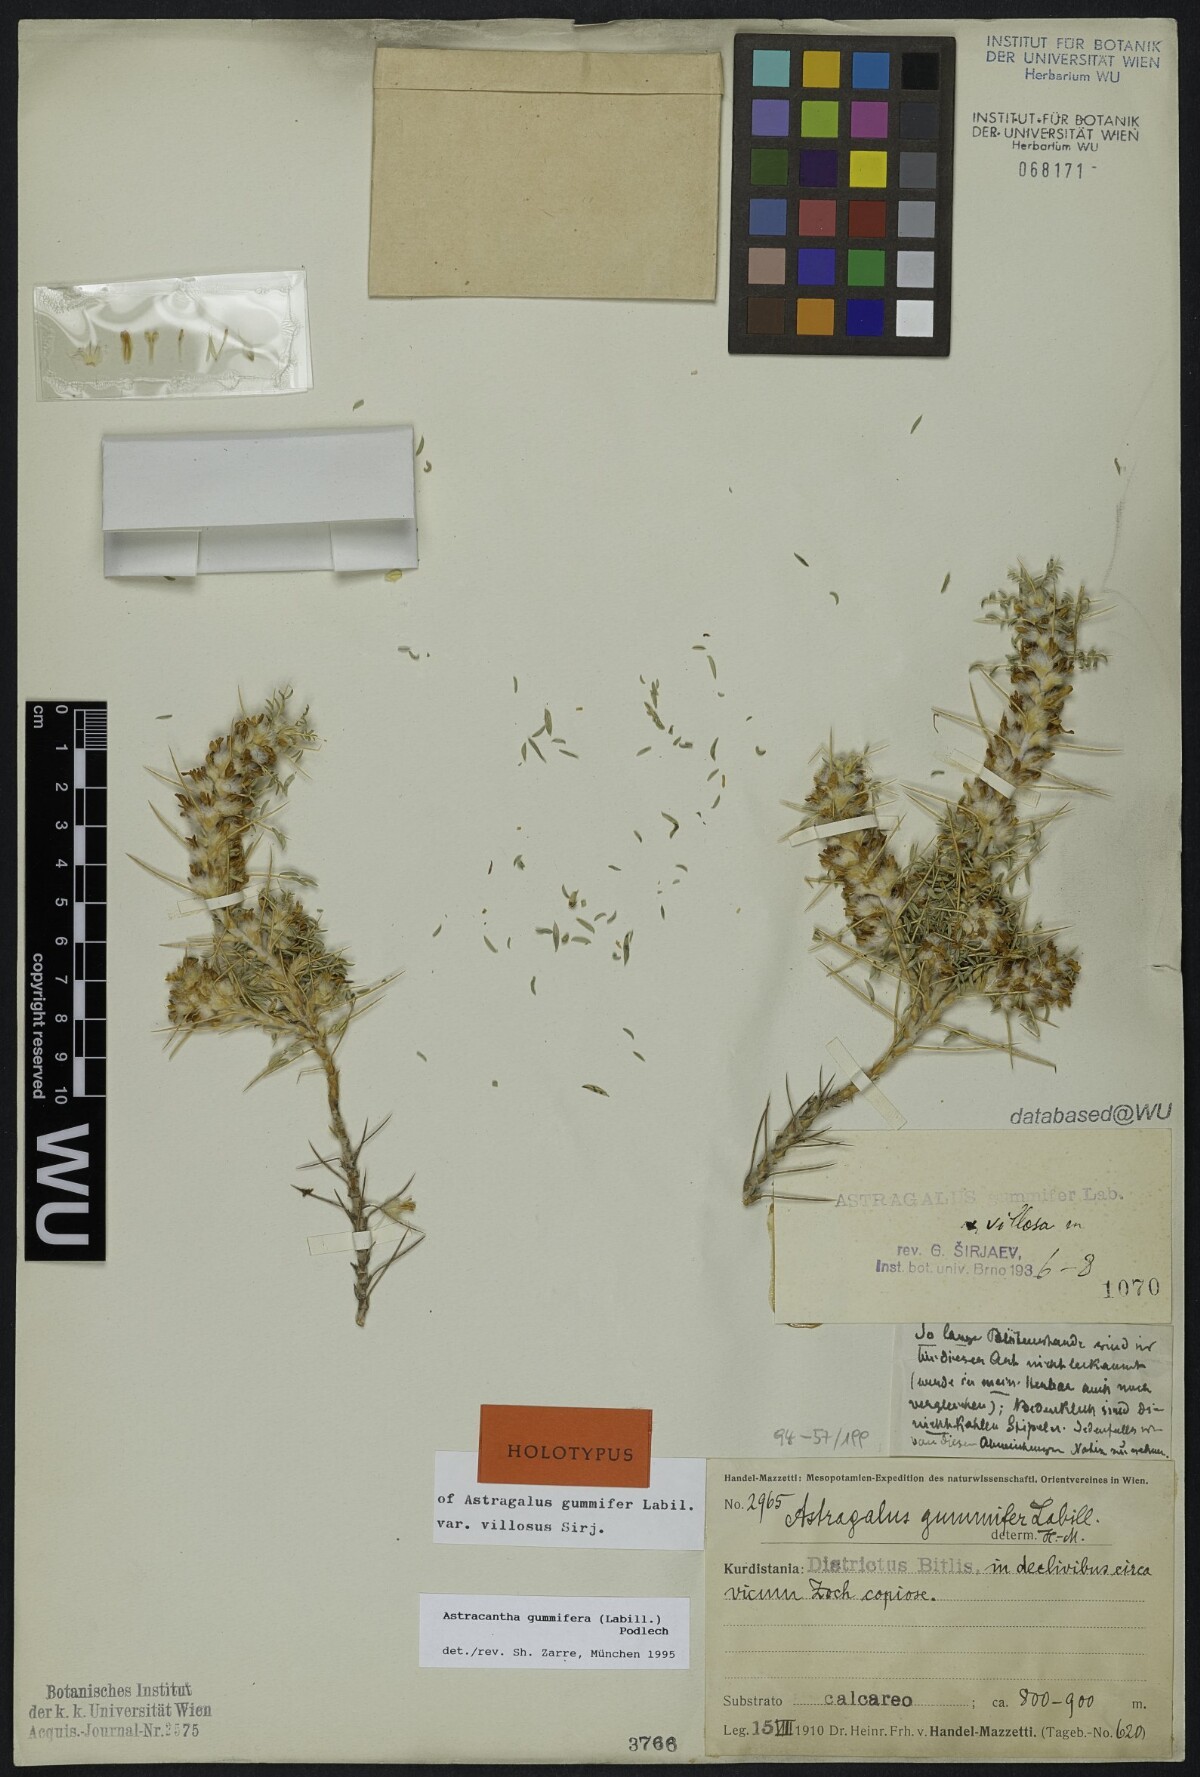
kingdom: Plantae
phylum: Tracheophyta
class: Magnoliopsida
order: Fabales
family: Fabaceae
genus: Astragalus
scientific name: Astragalus gummifer
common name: Tragacanth
